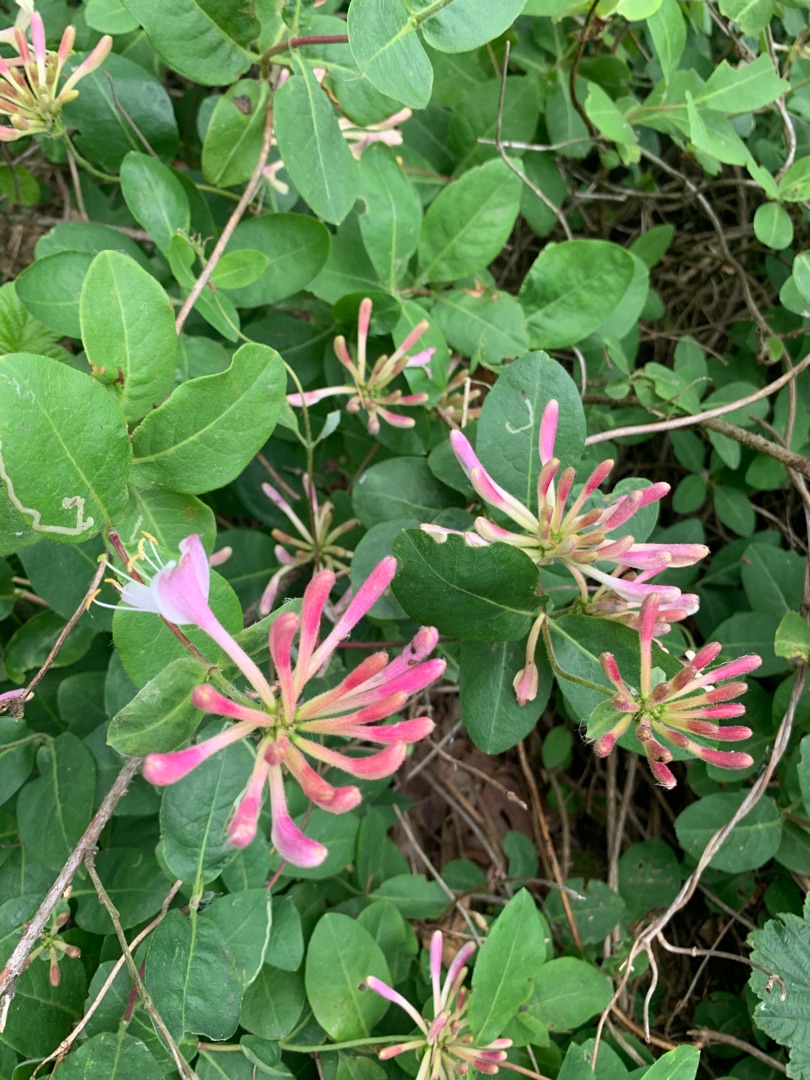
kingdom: Plantae
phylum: Tracheophyta
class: Magnoliopsida
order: Dipsacales
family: Caprifoliaceae
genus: Lonicera
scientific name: Lonicera periclymenum
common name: Almindelig gedeblad
